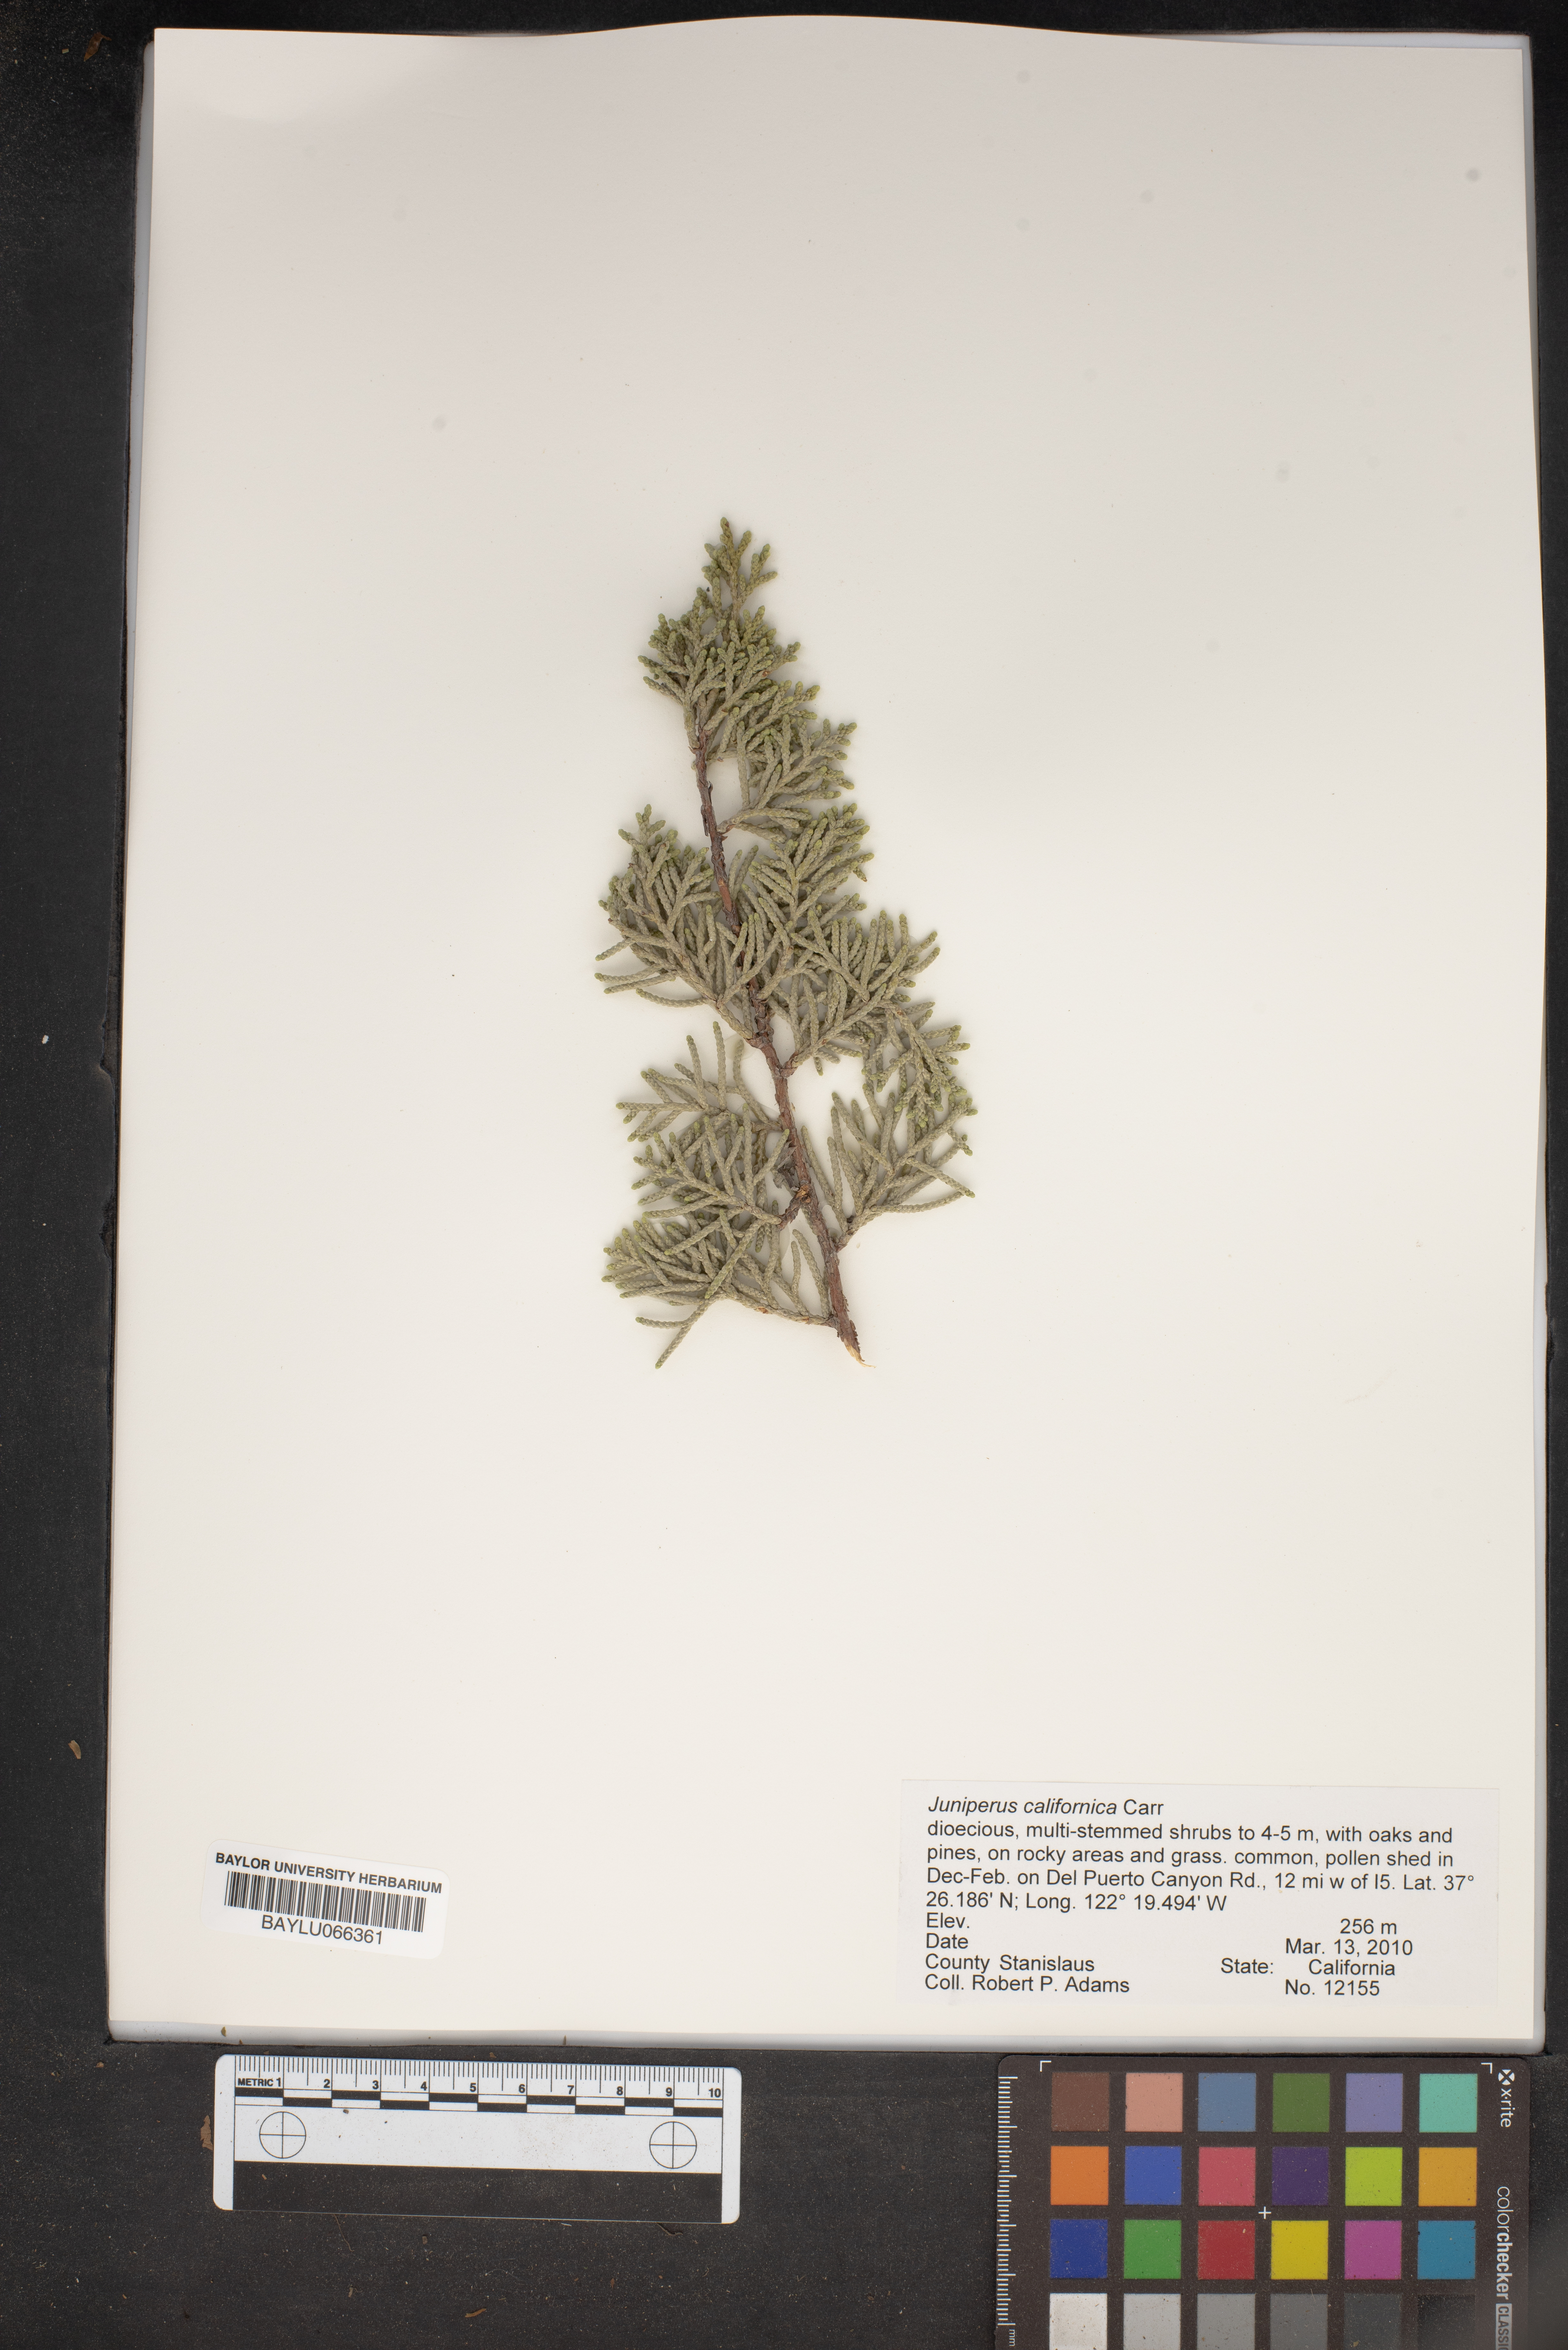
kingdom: Plantae
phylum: Tracheophyta
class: Pinopsida
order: Pinales
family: Cupressaceae
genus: Juniperus
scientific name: Juniperus californica
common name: California juniper
